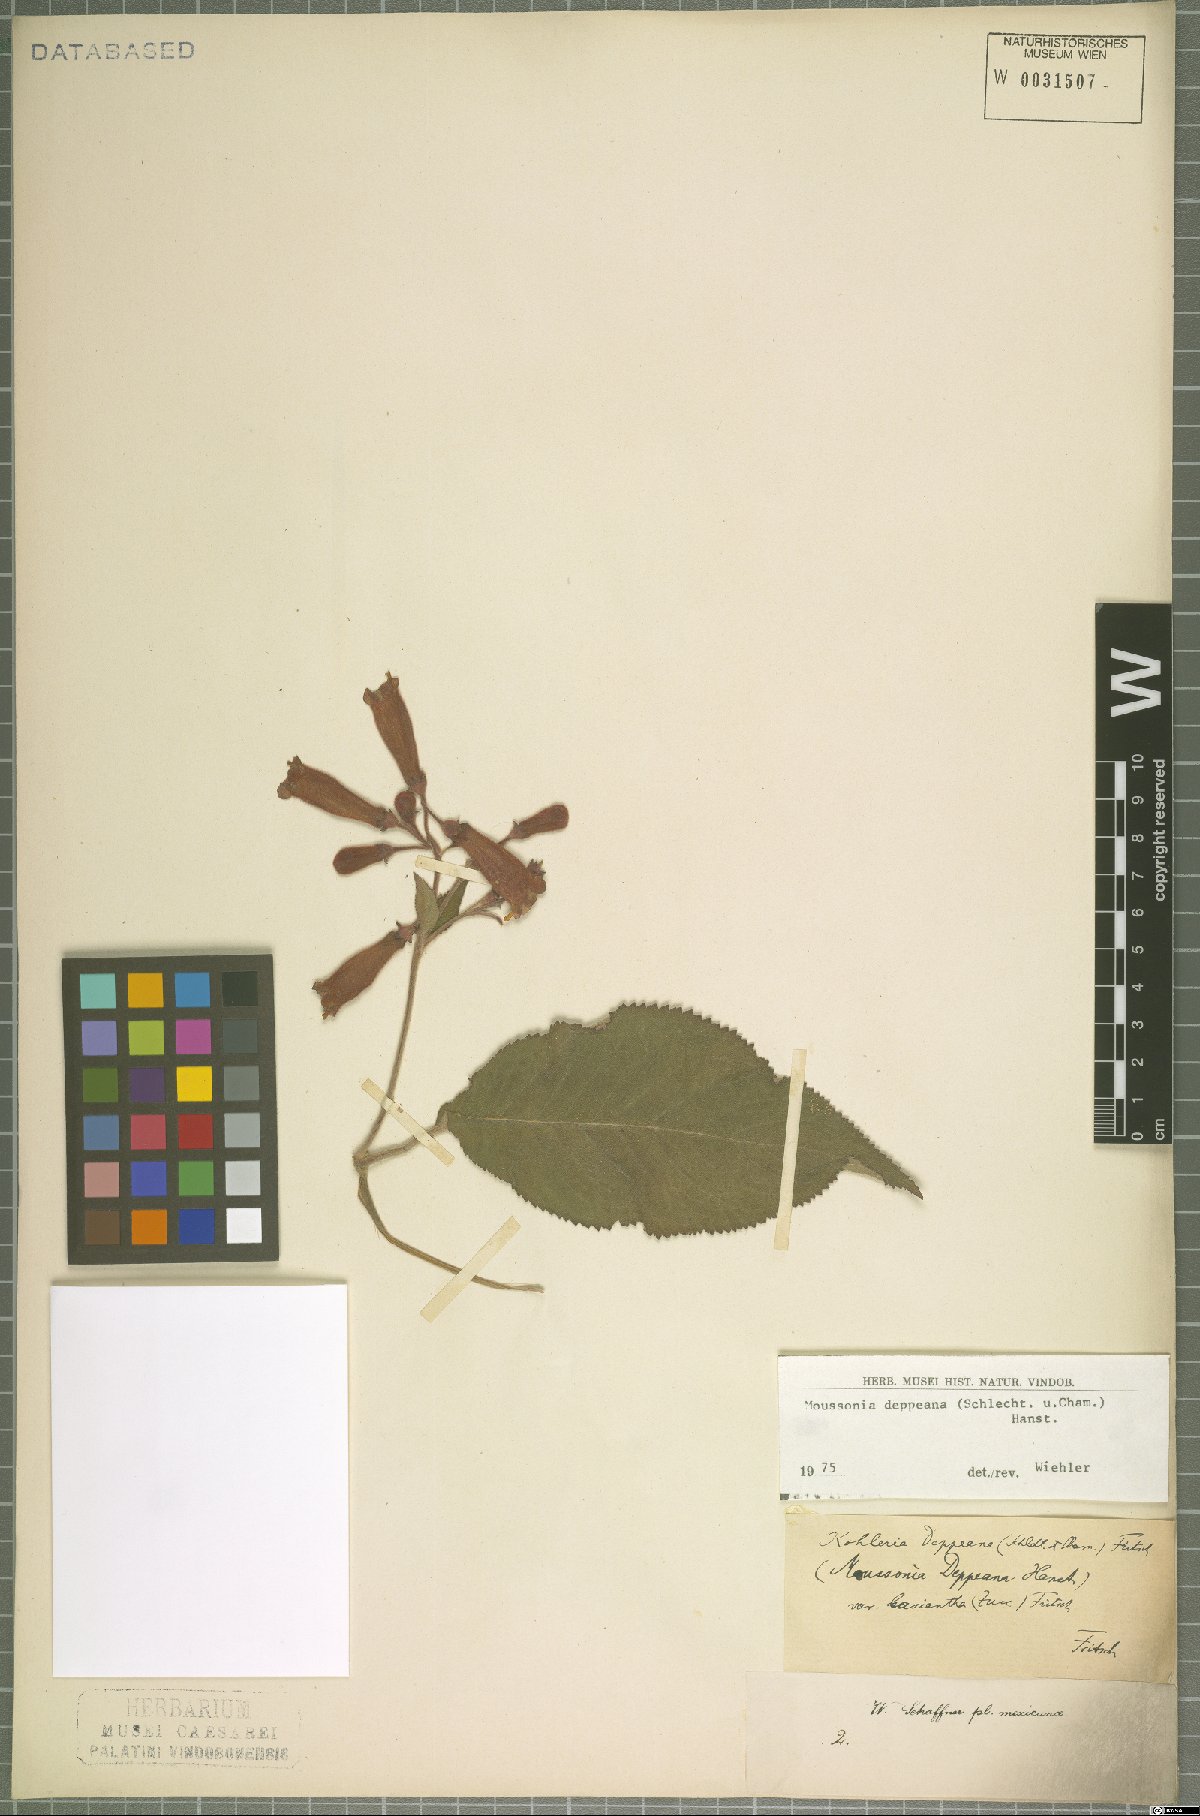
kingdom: Plantae
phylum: Tracheophyta
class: Magnoliopsida
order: Lamiales
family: Gesneriaceae
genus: Moussonia
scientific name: Moussonia deppeana
